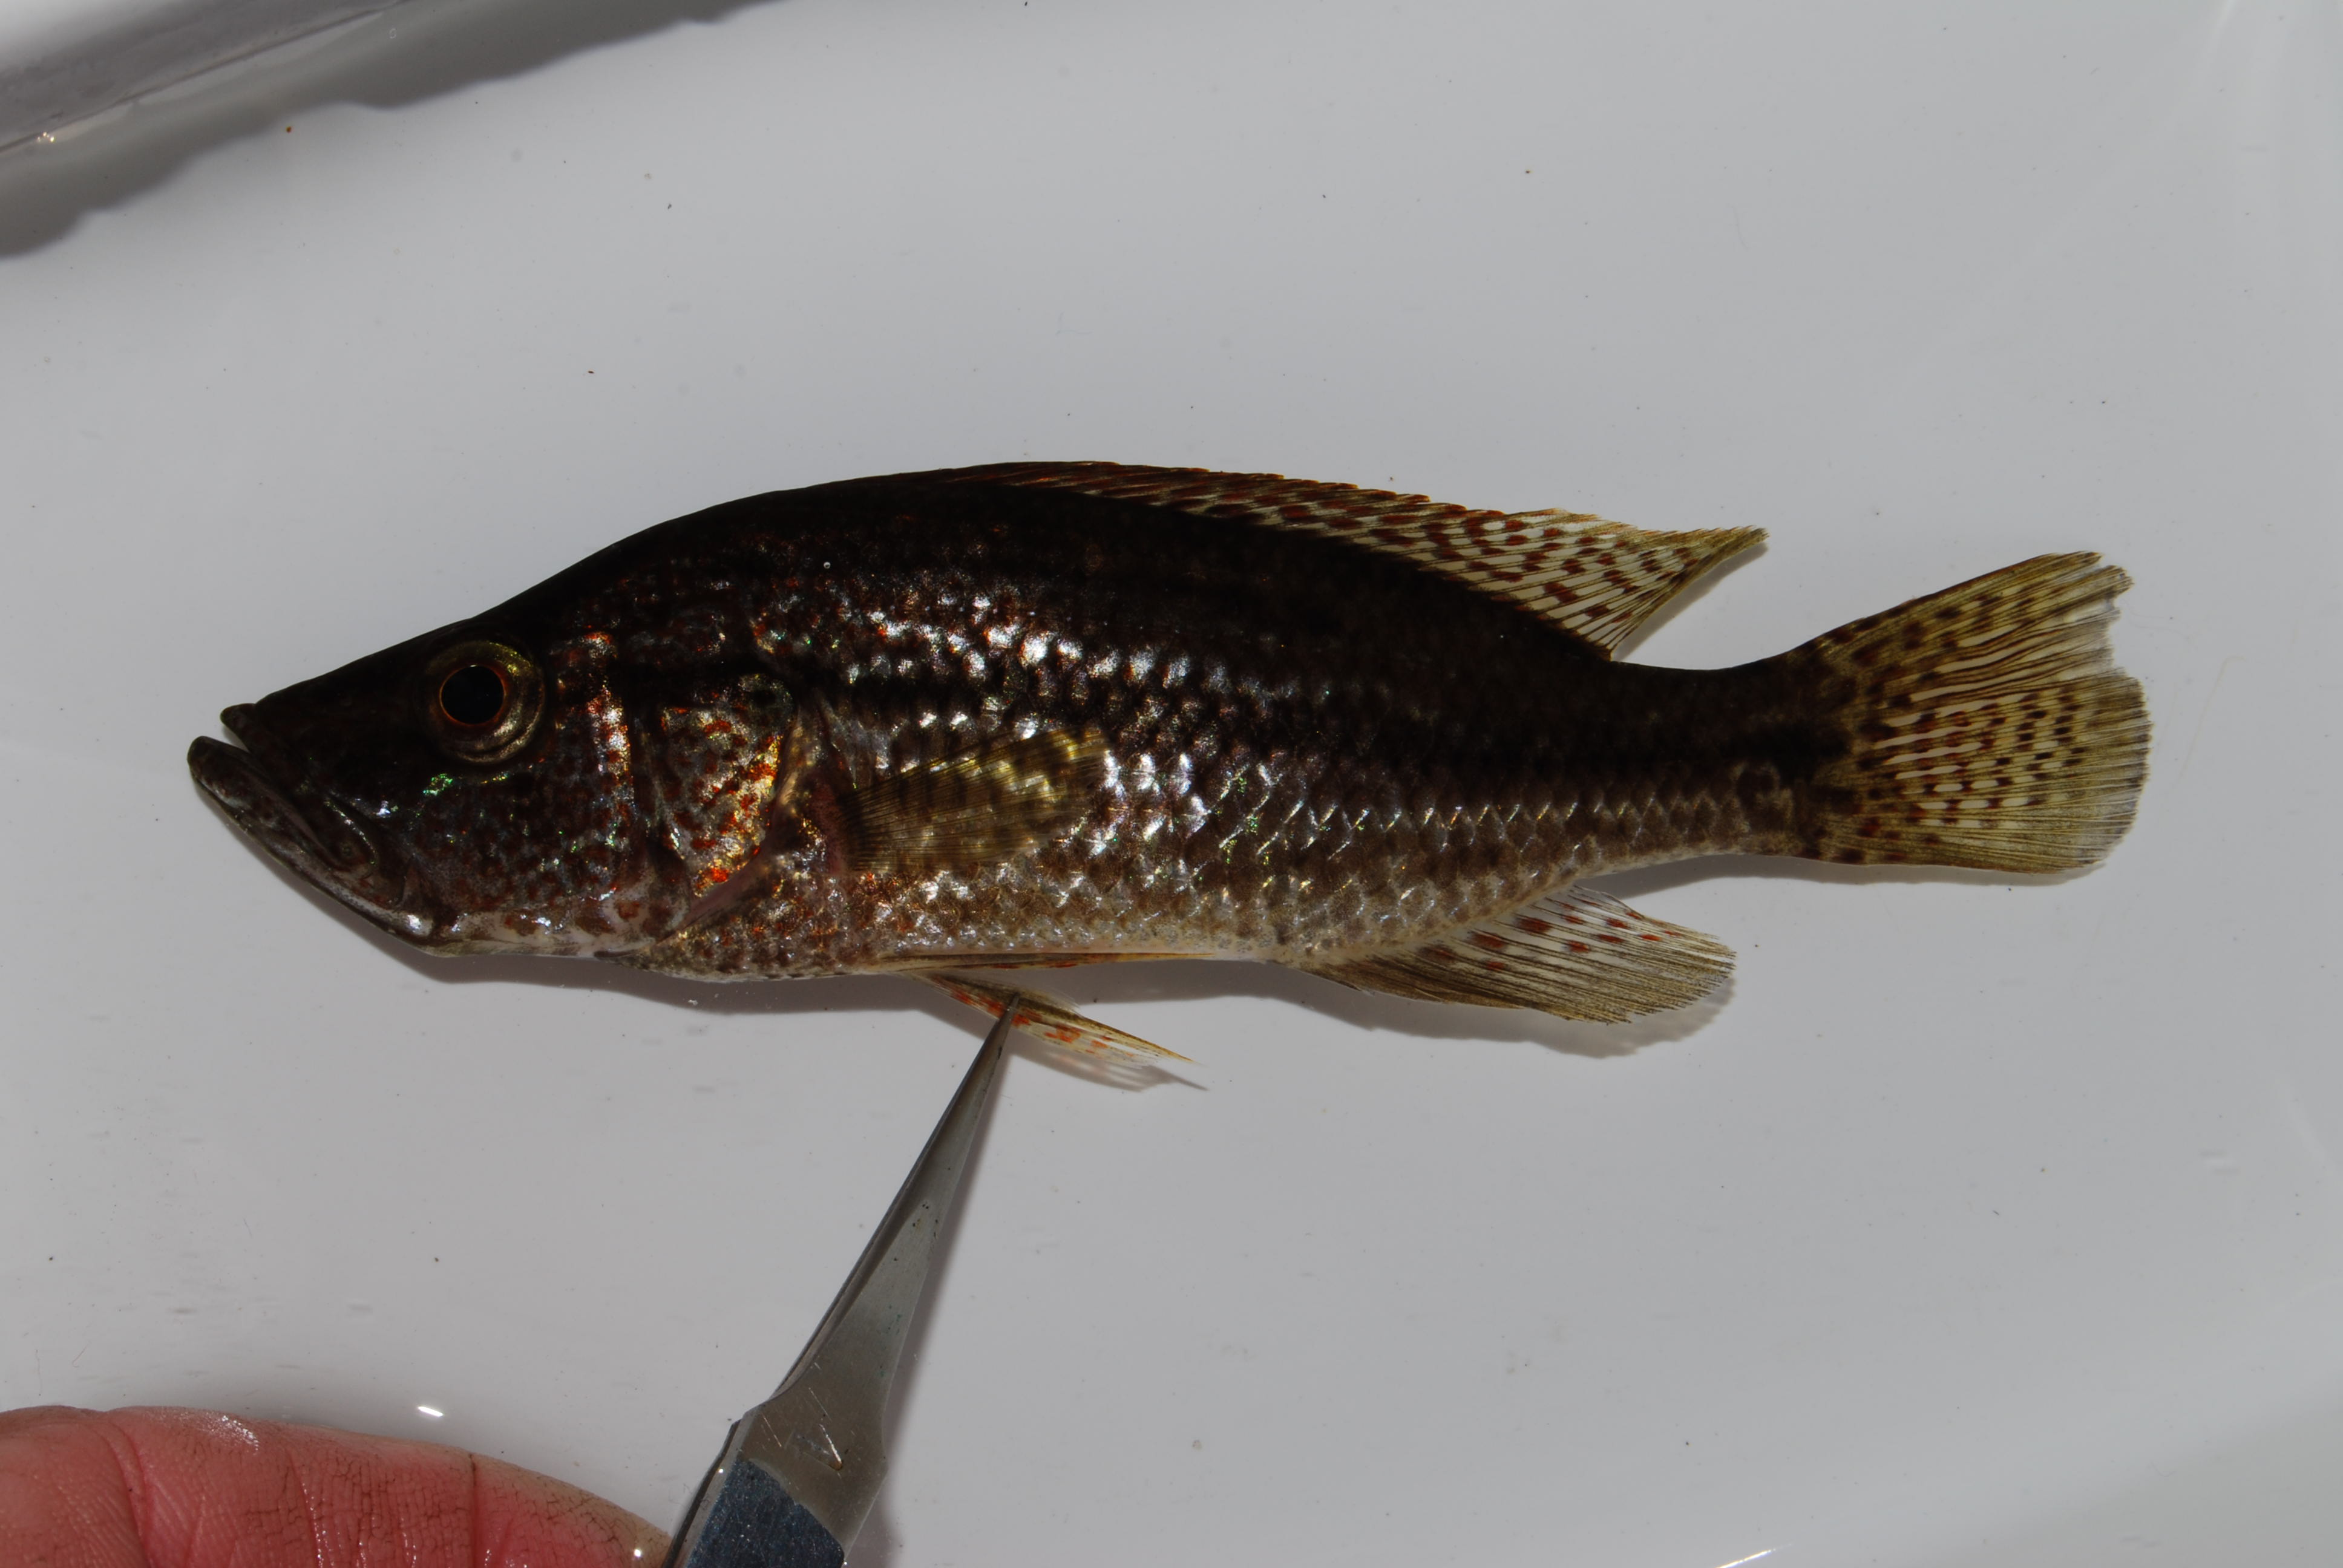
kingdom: Animalia
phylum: Chordata
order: Perciformes
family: Cichlidae
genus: Serranochromis
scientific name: Serranochromis angusticeps
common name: Thinface largemouth
